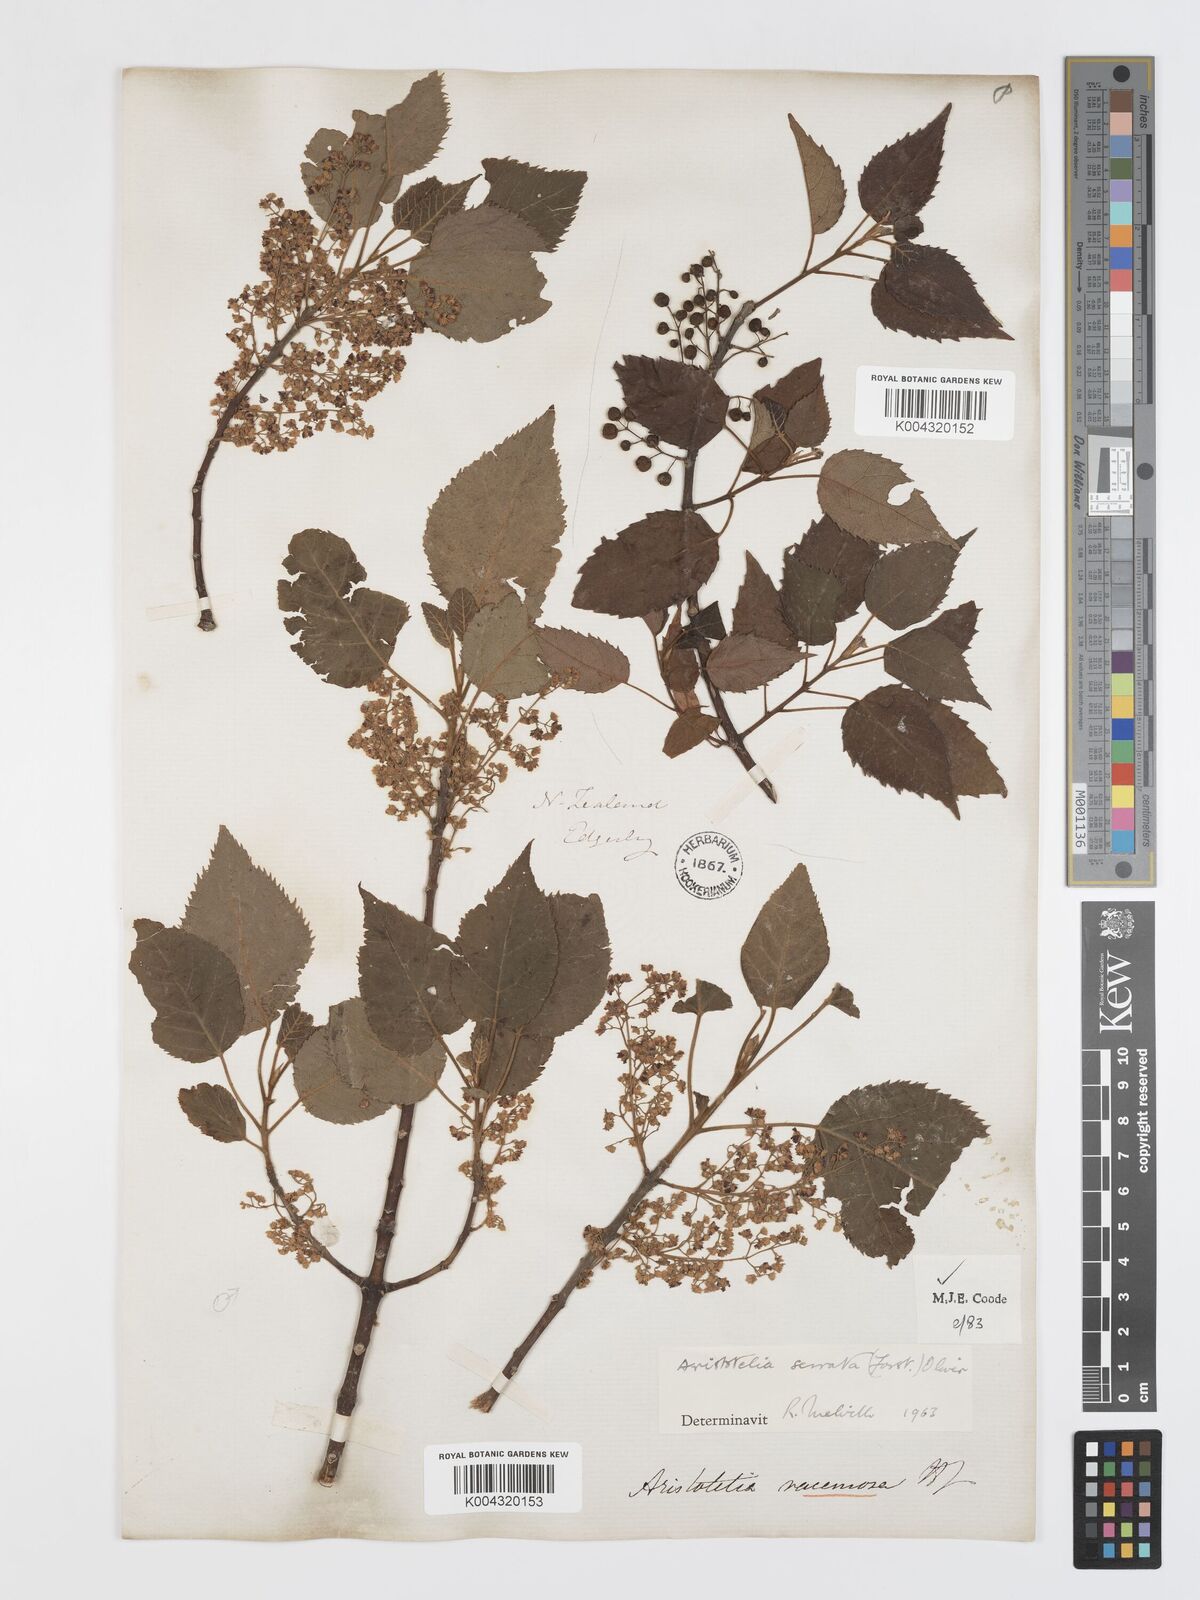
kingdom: Plantae
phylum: Tracheophyta
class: Magnoliopsida
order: Oxalidales
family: Elaeocarpaceae
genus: Aristotelia
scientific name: Aristotelia serrata
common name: New zealand wineberry
